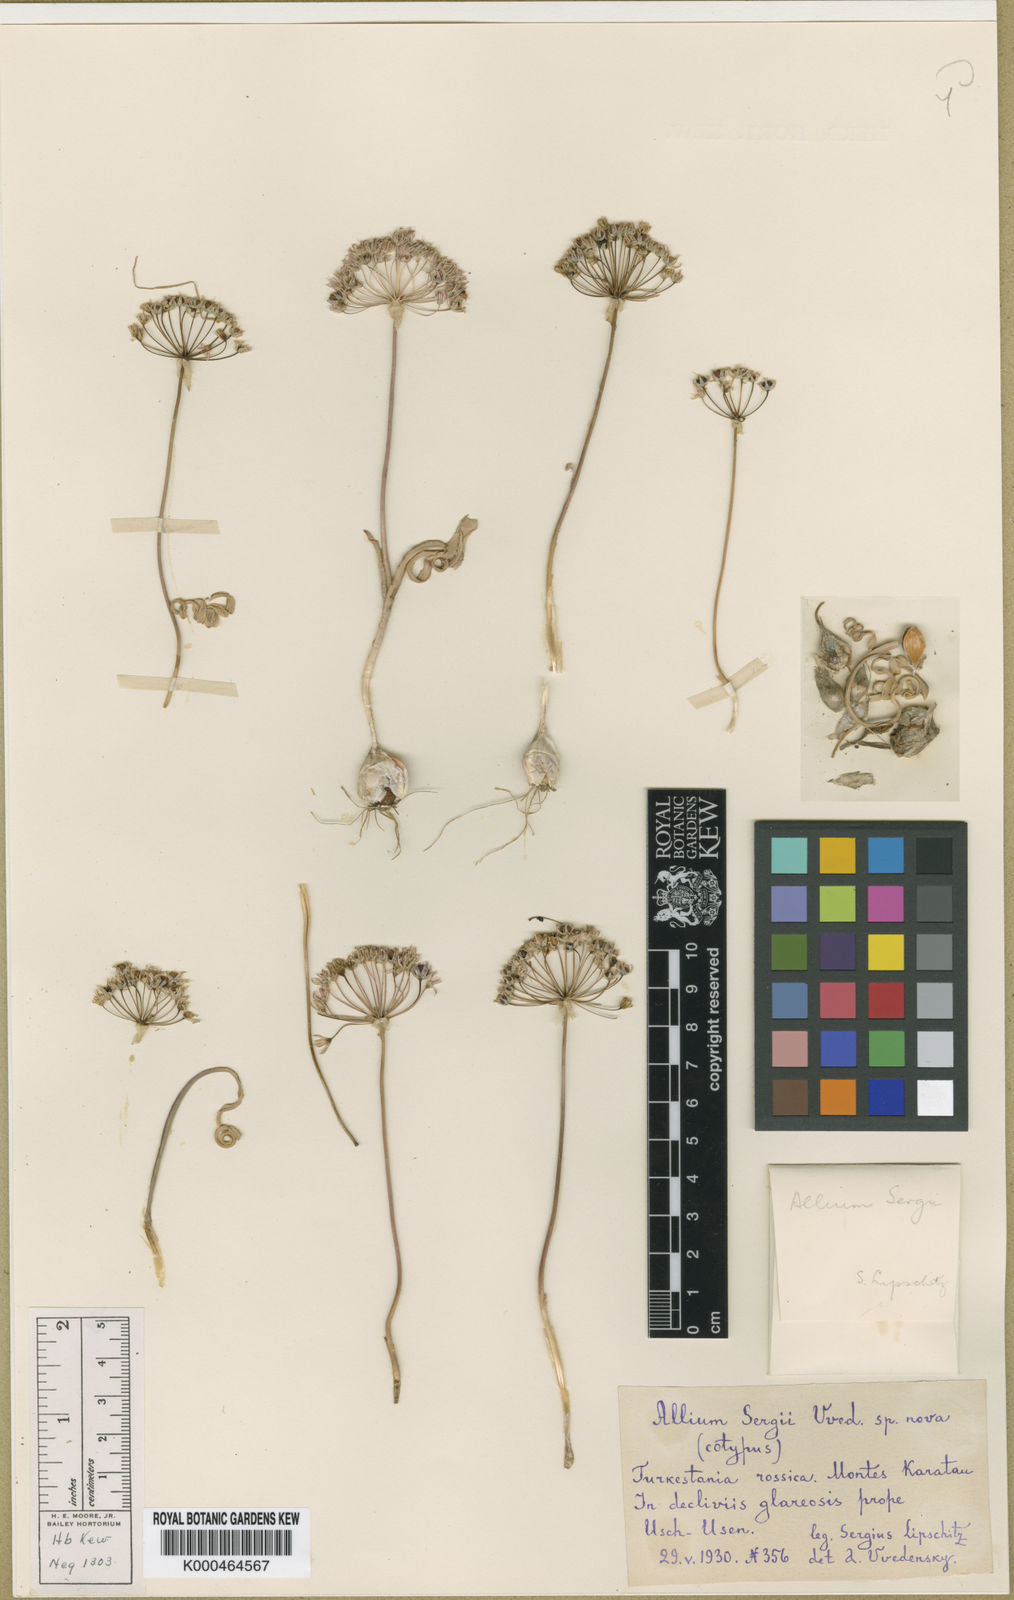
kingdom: Plantae
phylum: Tracheophyta
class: Liliopsida
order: Asparagales
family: Amaryllidaceae
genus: Allium
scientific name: Allium sergii
